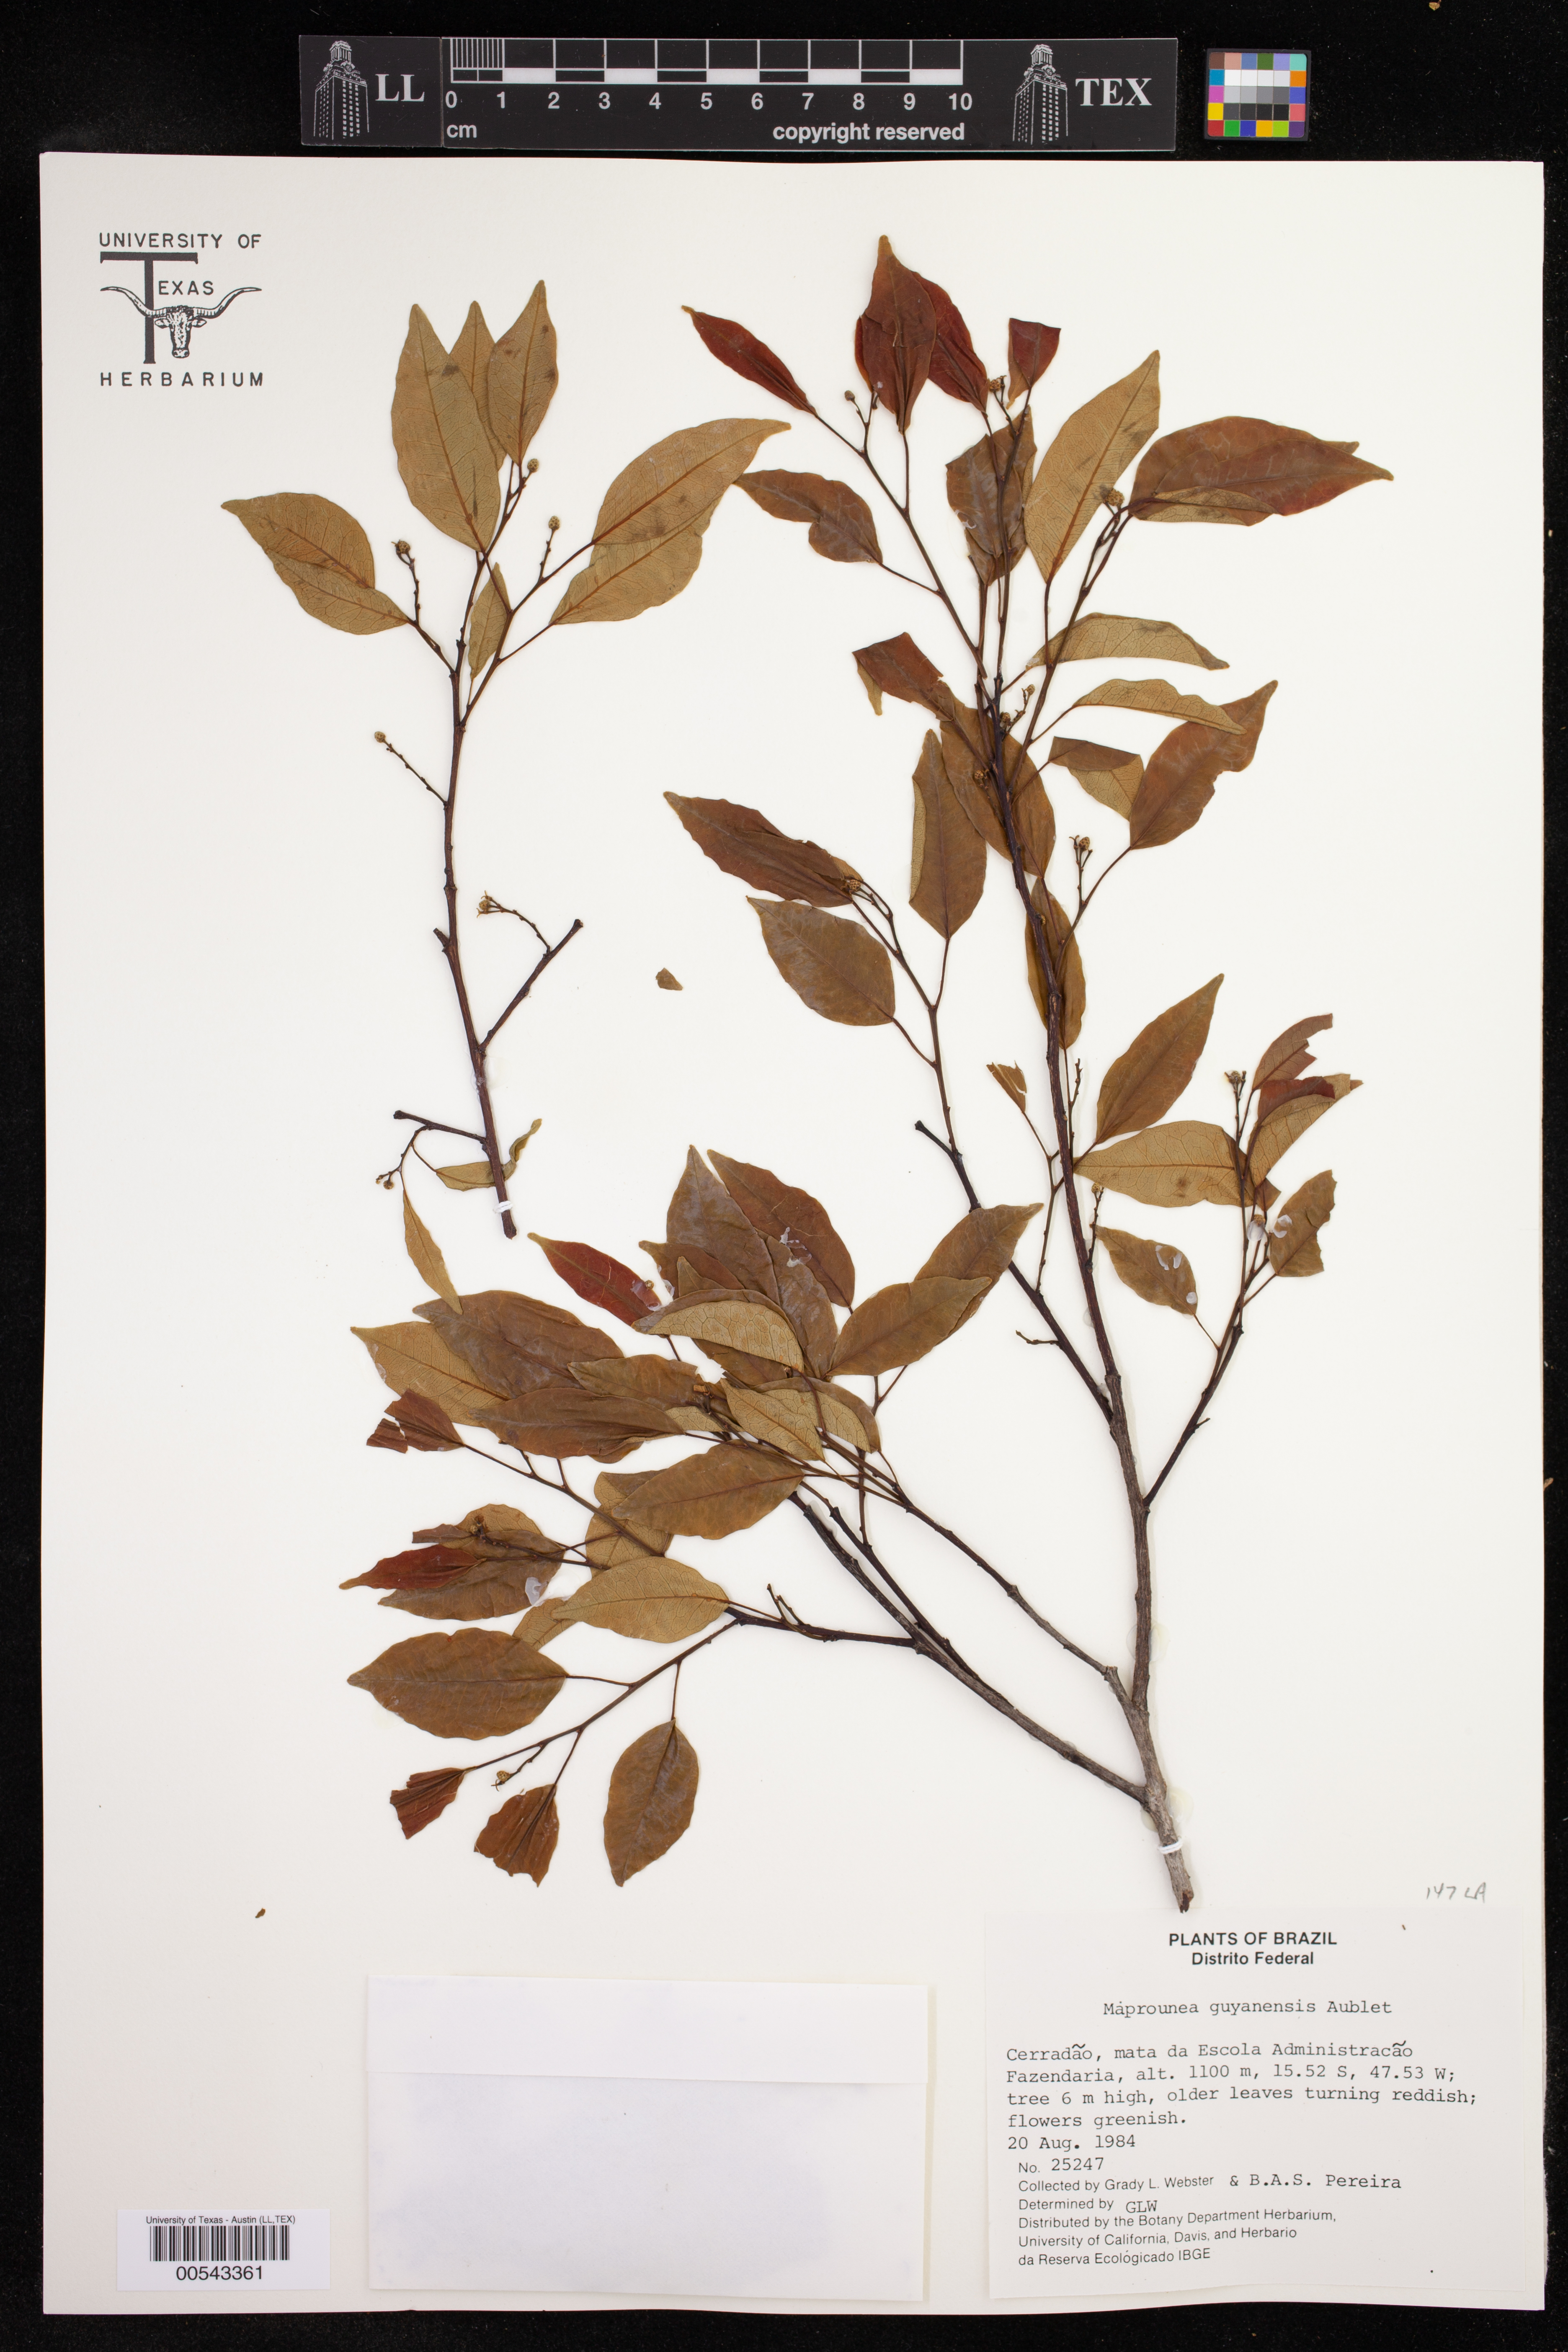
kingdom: Plantae
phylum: Tracheophyta
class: Magnoliopsida
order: Malpighiales
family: Euphorbiaceae
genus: Maprounea
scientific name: Maprounea guianensis
